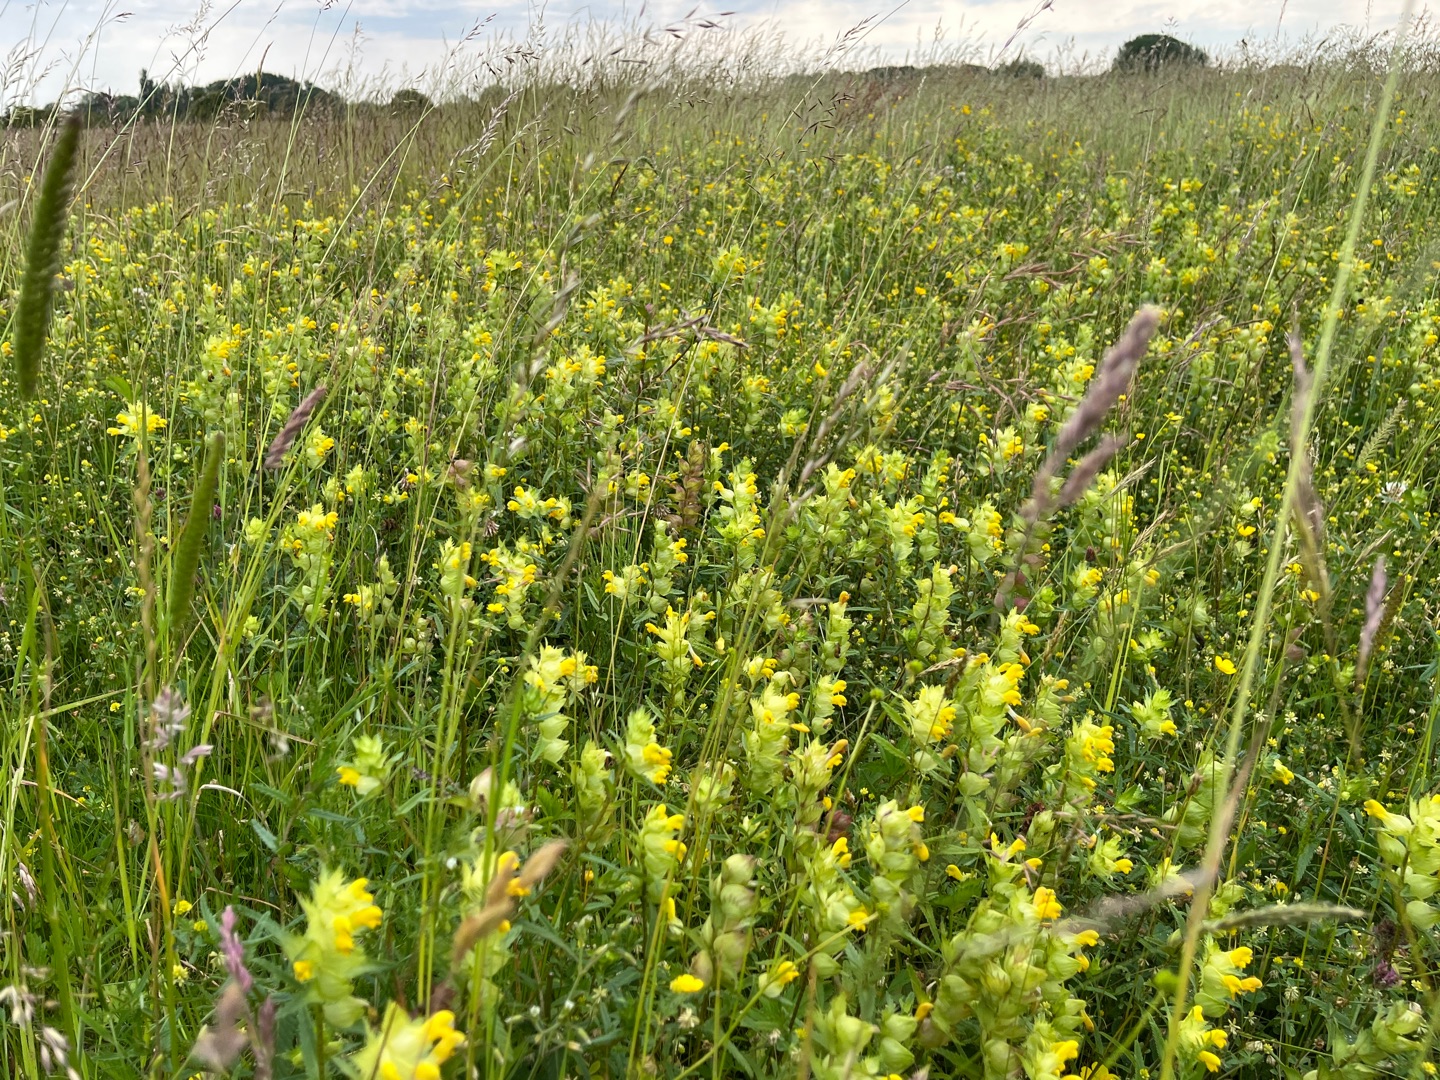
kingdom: Plantae
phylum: Tracheophyta
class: Magnoliopsida
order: Lamiales
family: Orobanchaceae
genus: Rhinanthus
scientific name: Rhinanthus
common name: Stor skjaller
